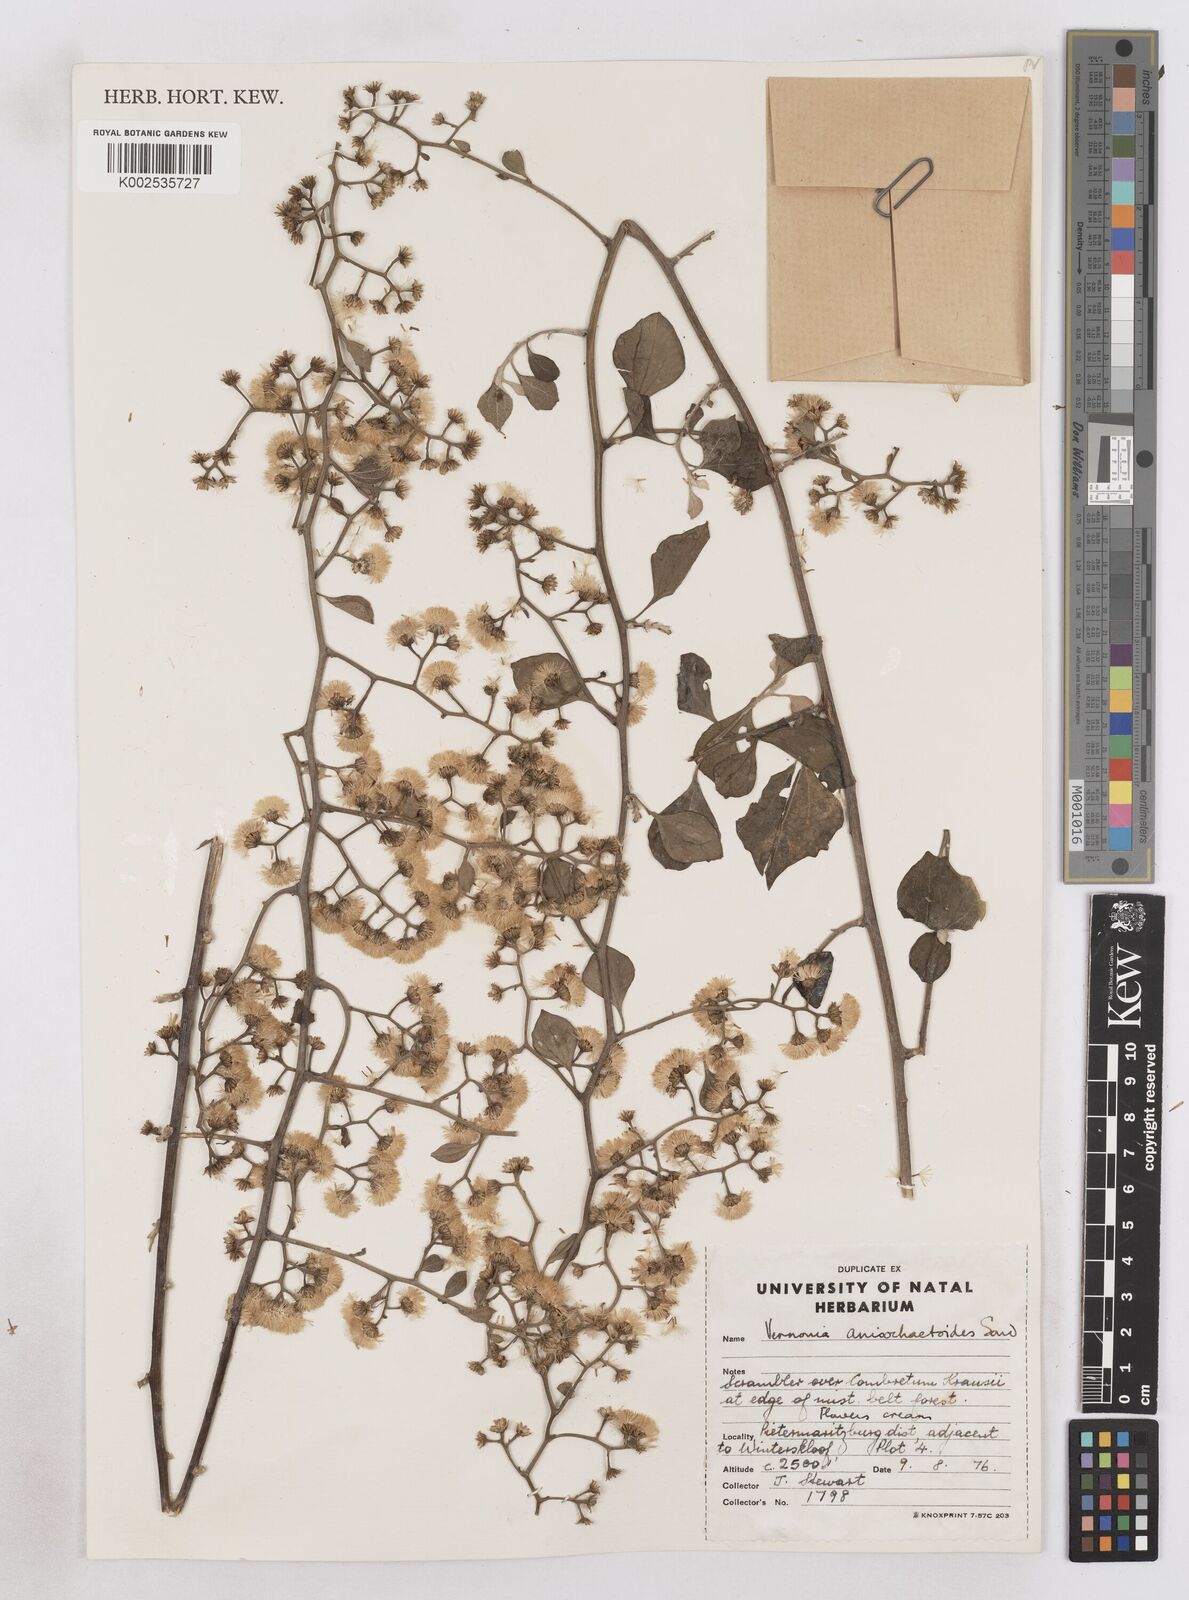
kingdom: Plantae
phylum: Tracheophyta
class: Magnoliopsida
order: Asterales
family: Asteraceae
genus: Distephanus
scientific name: Distephanus anisochaetoides
